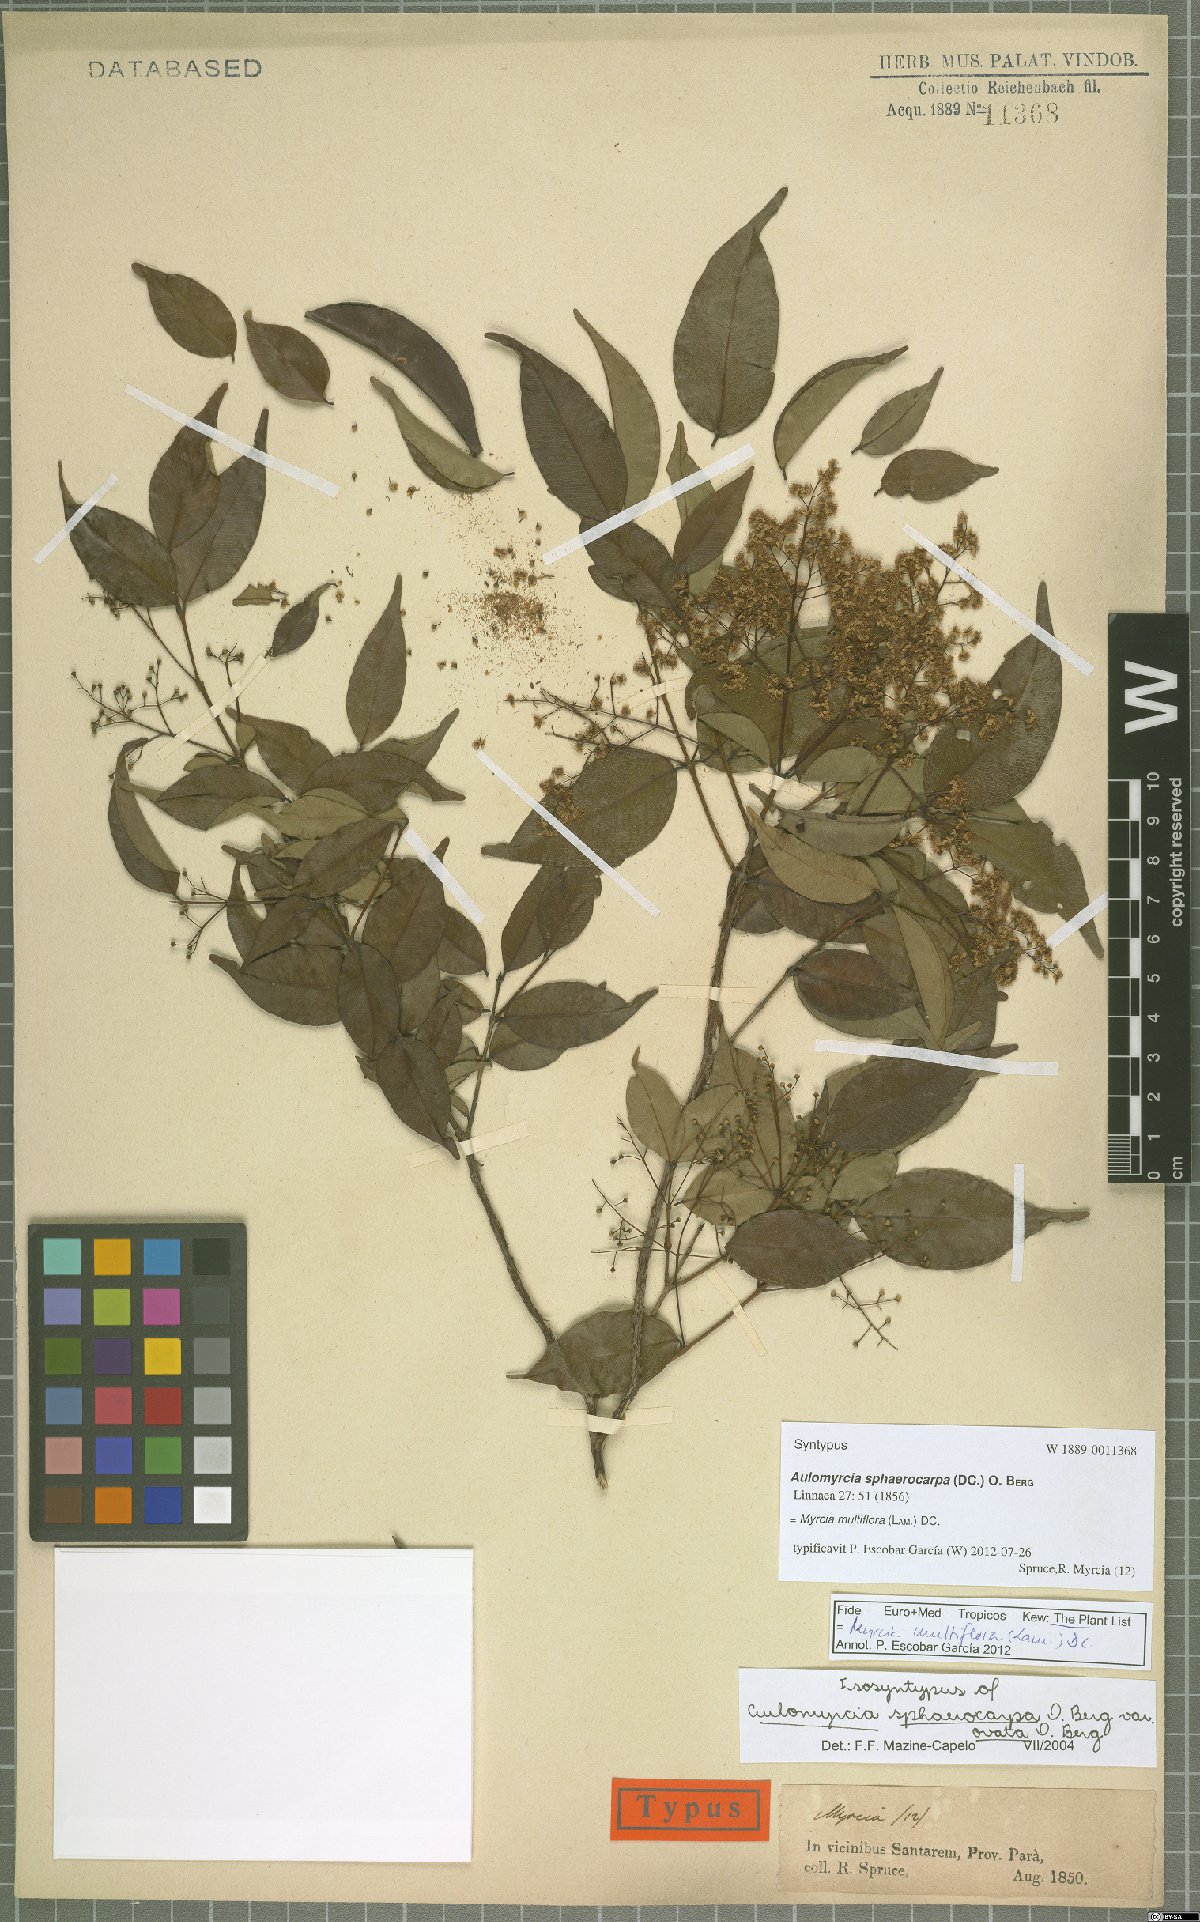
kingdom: Plantae
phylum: Tracheophyta
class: Magnoliopsida
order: Myrtales
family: Myrtaceae
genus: Myrcia
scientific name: Myrcia multiflora
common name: Pedra hume
